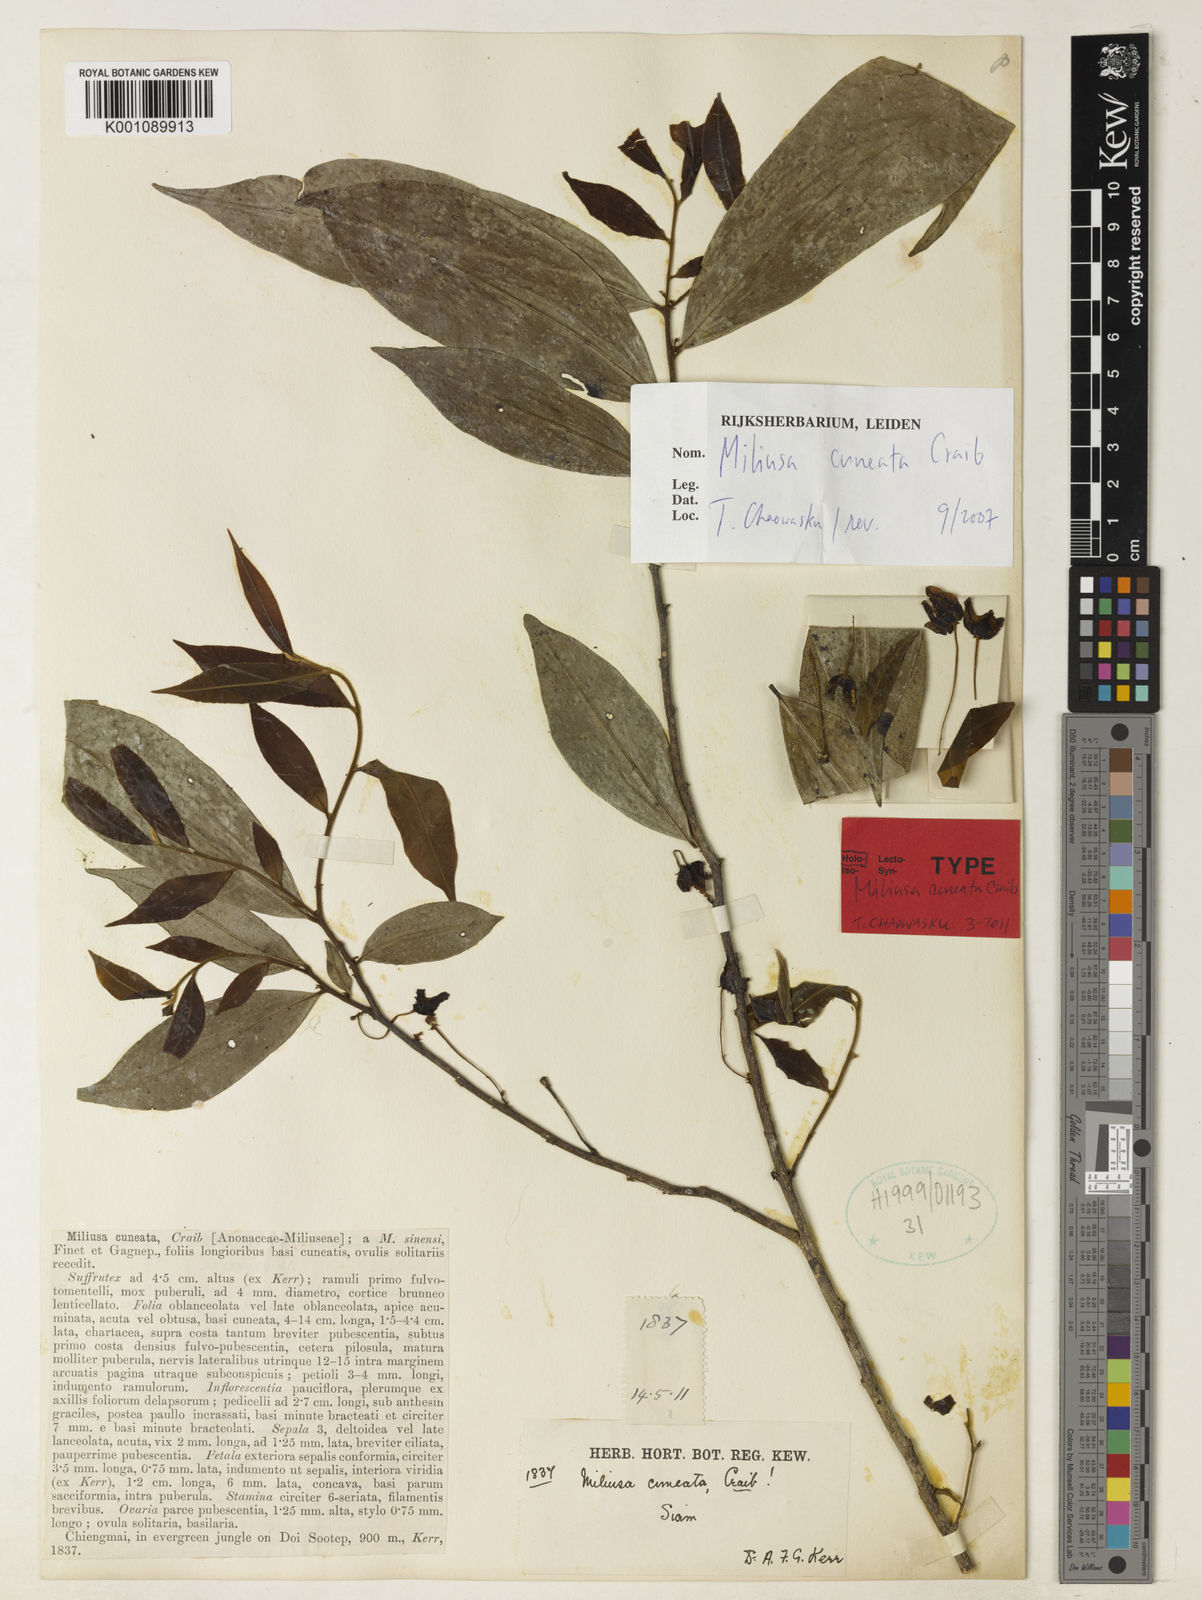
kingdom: Plantae
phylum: Tracheophyta
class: Magnoliopsida
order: Magnoliales
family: Annonaceae
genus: Miliusa
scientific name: Miliusa cuneata
